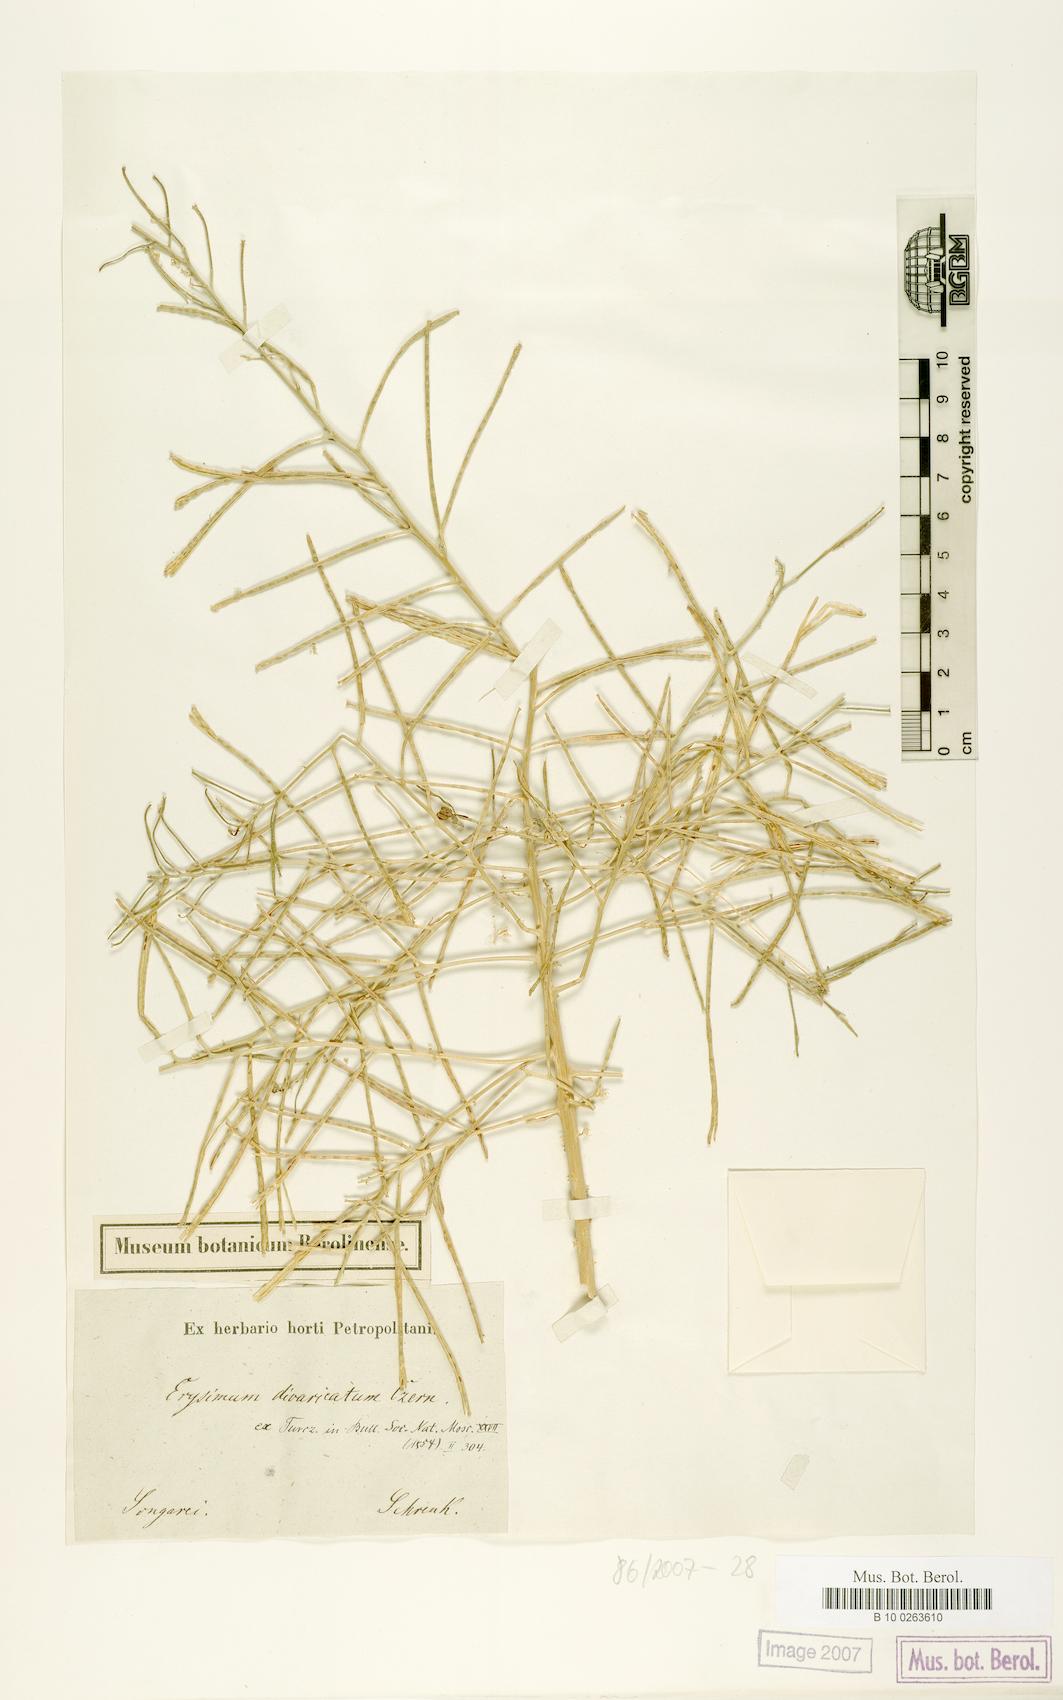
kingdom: Plantae
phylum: Tracheophyta
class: Magnoliopsida
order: Brassicales
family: Brassicaceae
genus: Erysimum
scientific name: Erysimum czernjajevii
